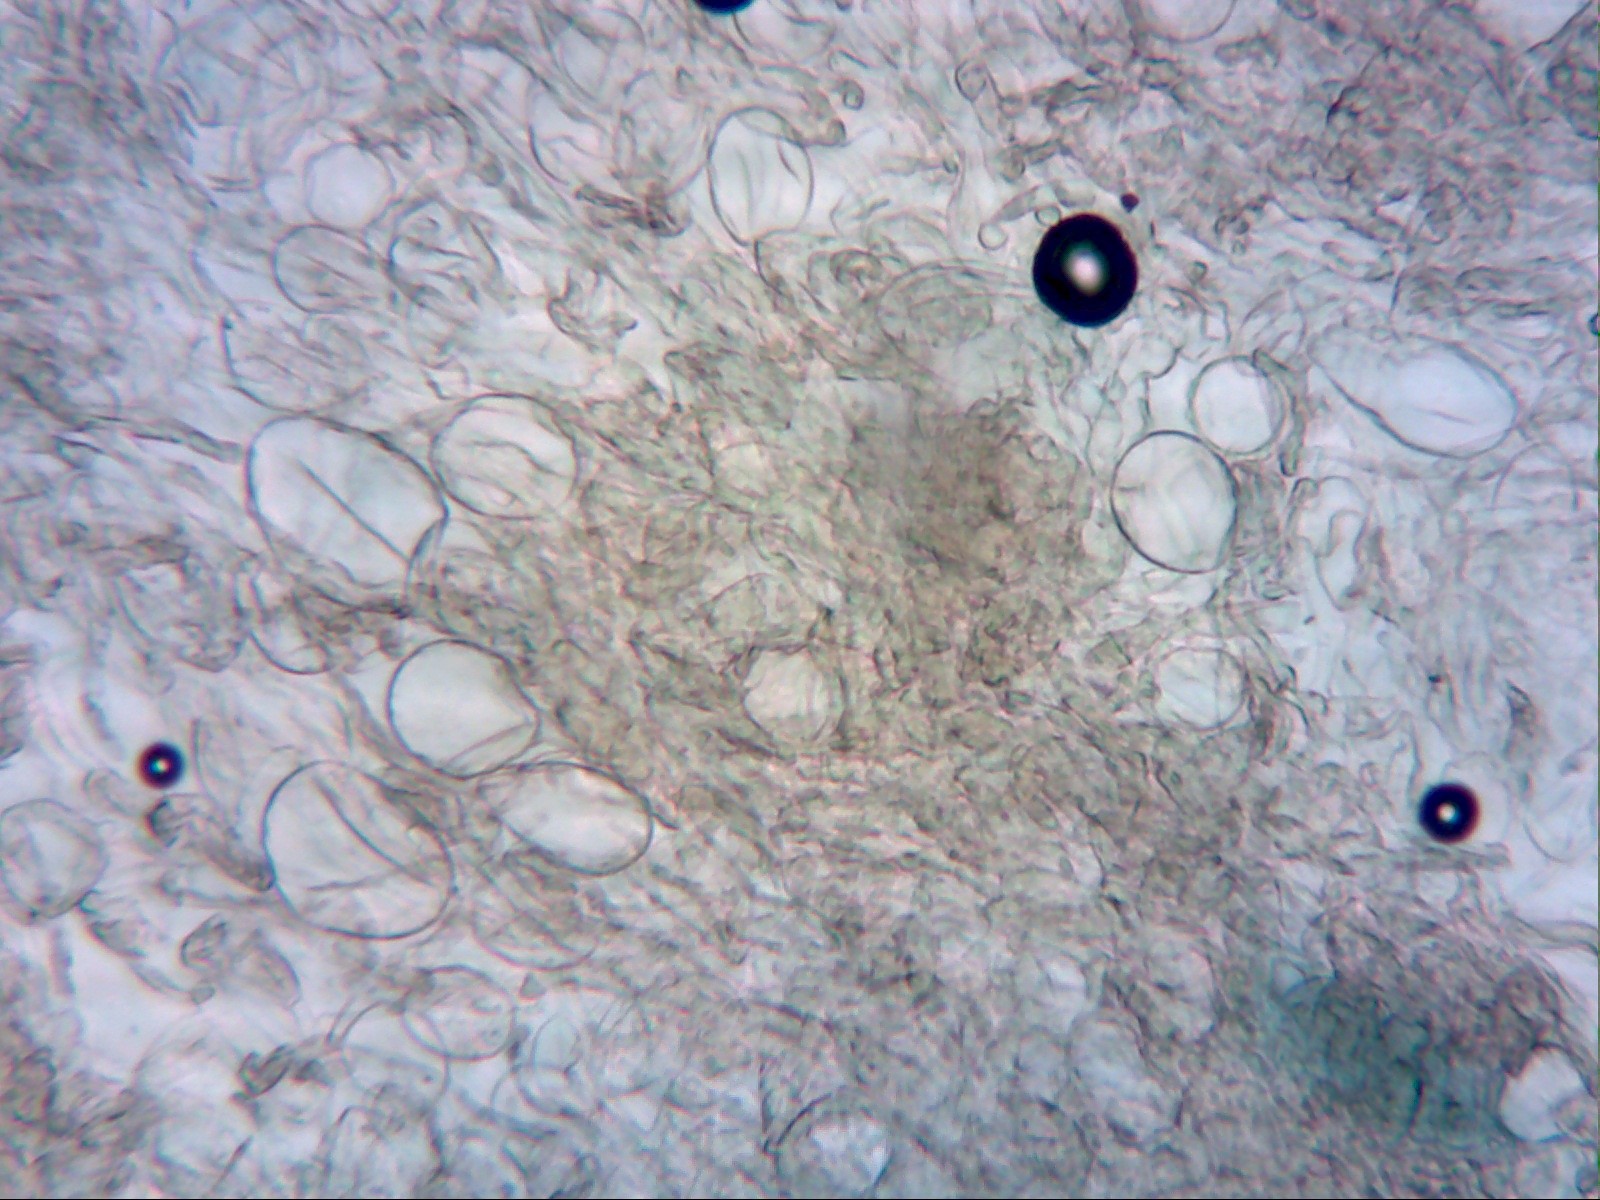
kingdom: Fungi
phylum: Basidiomycota
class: Agaricomycetes
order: Agaricales
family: Amanitaceae
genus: Amanita
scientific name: Amanita olivaceogrisea
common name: olivengrå kam-fluesvamp
